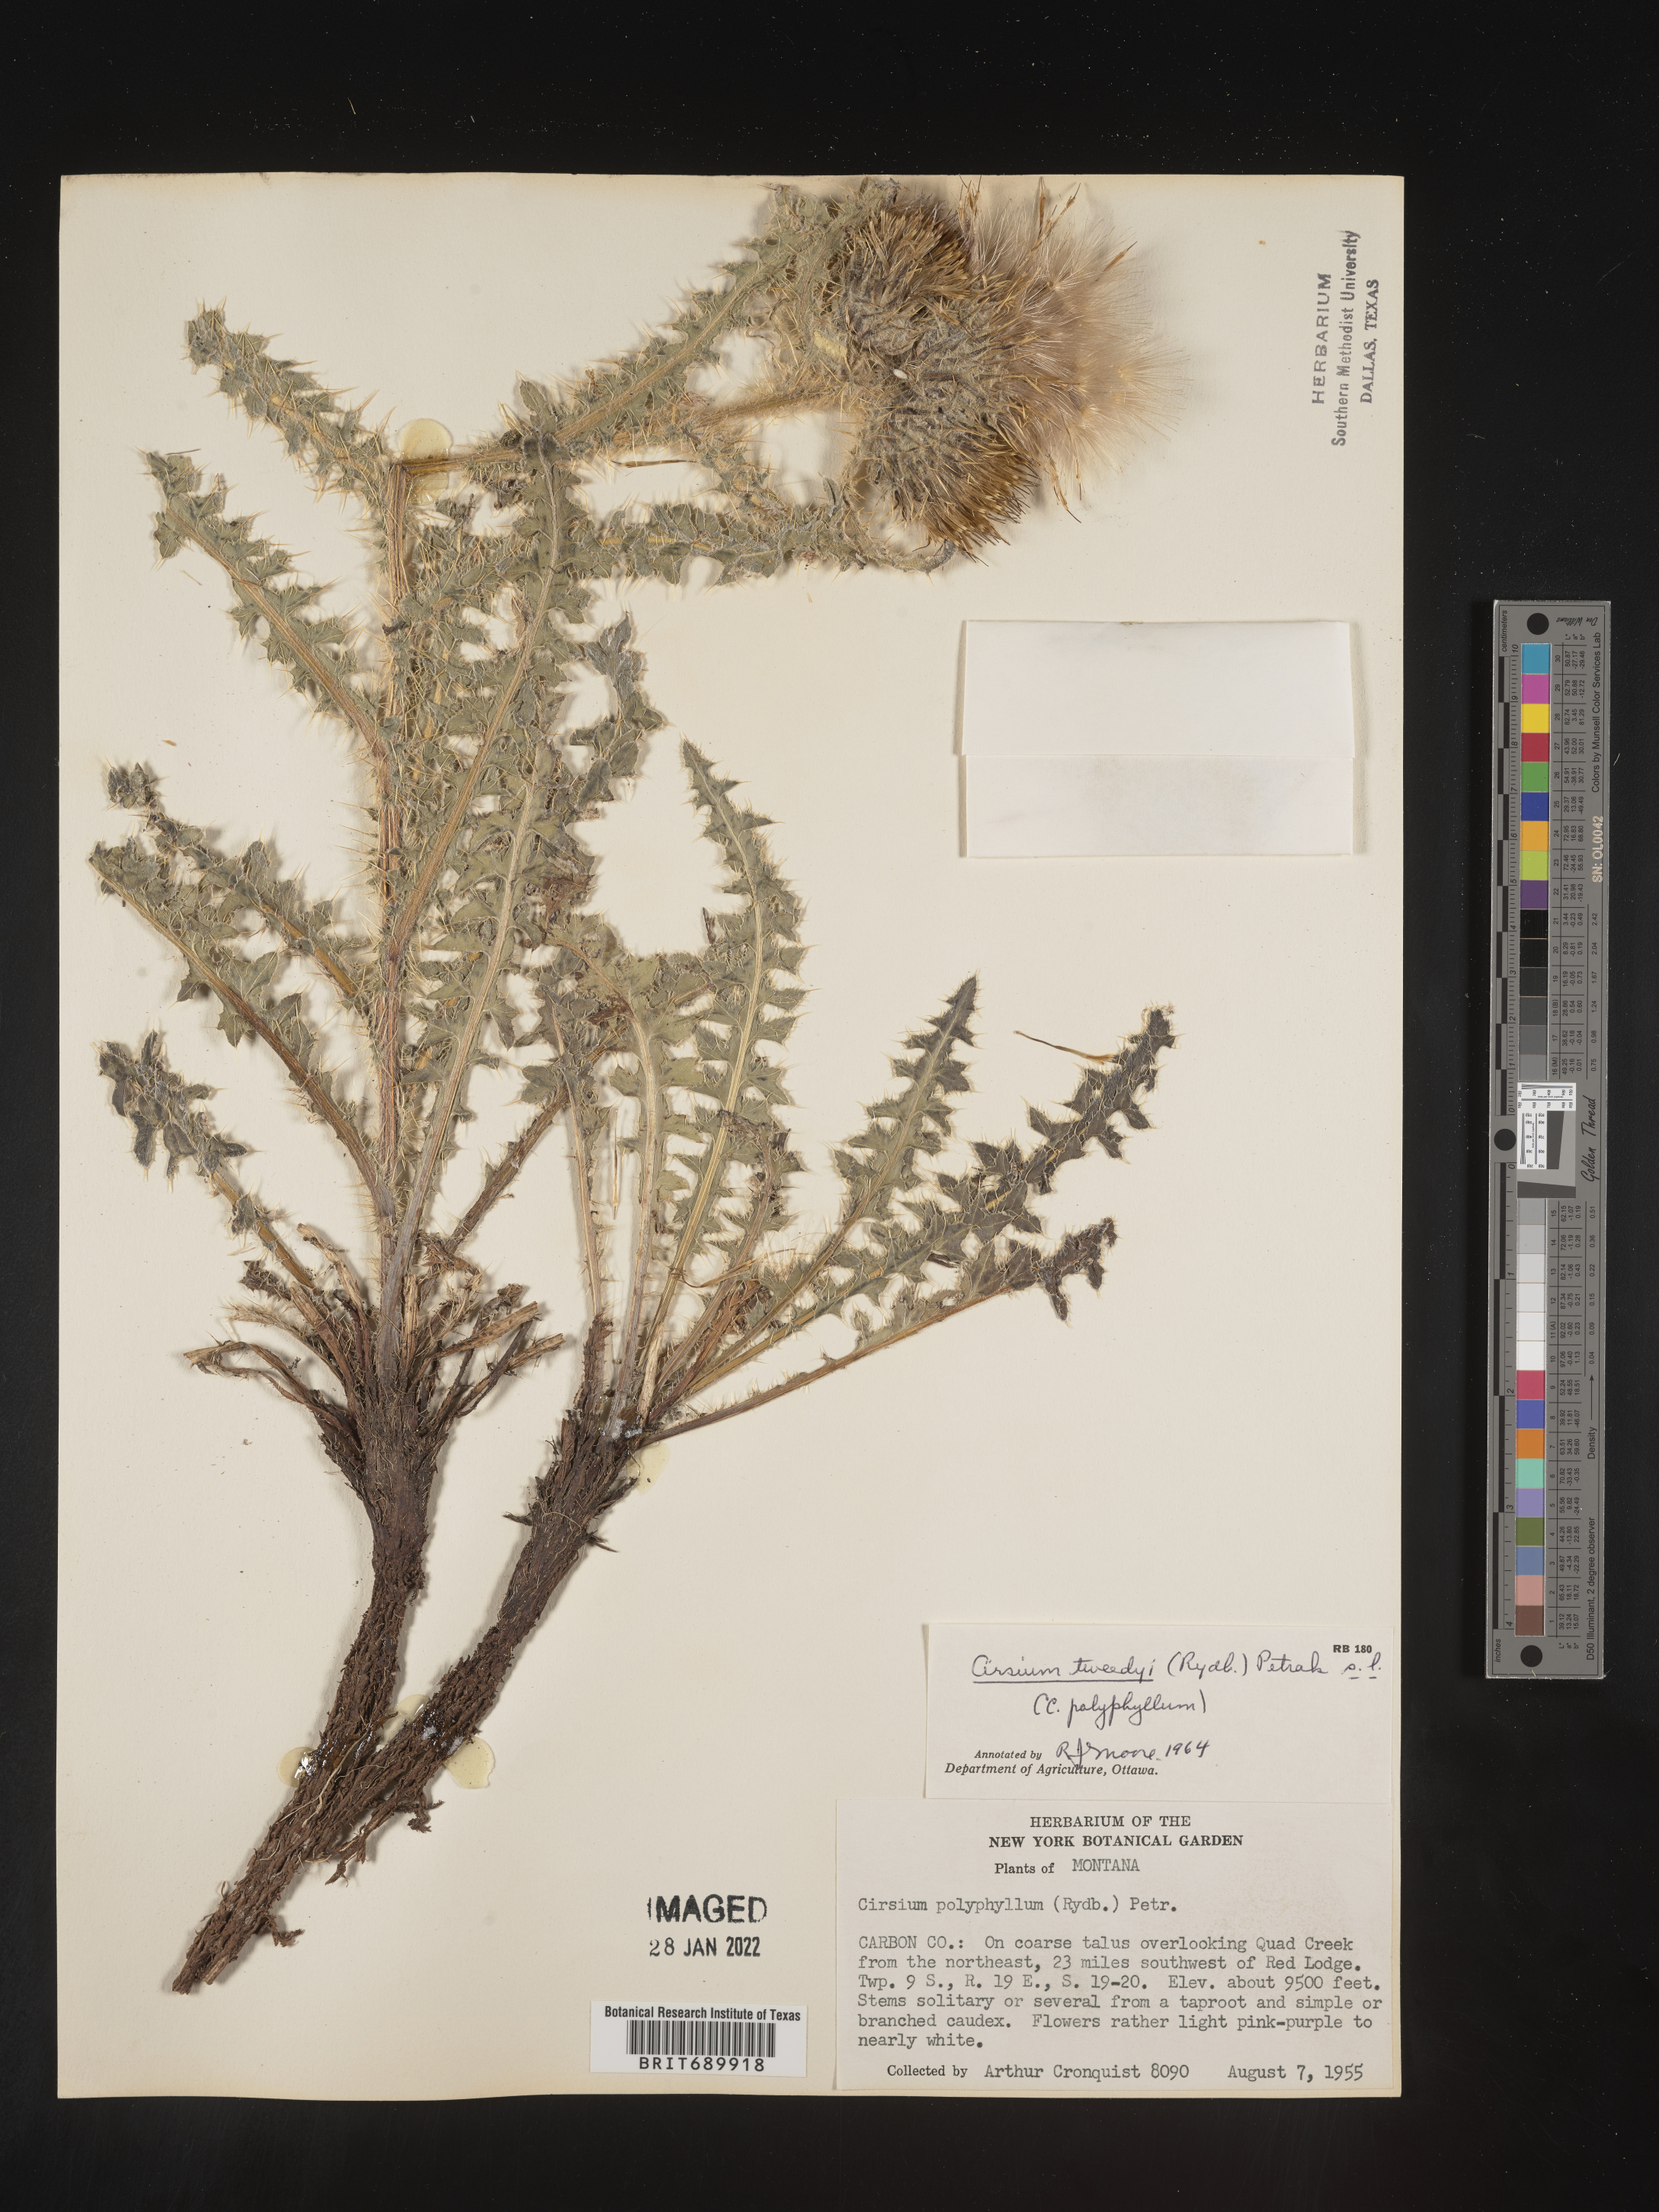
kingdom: Plantae
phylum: Tracheophyta
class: Magnoliopsida
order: Asterales
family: Asteraceae
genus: Cirsium
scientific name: Cirsium
